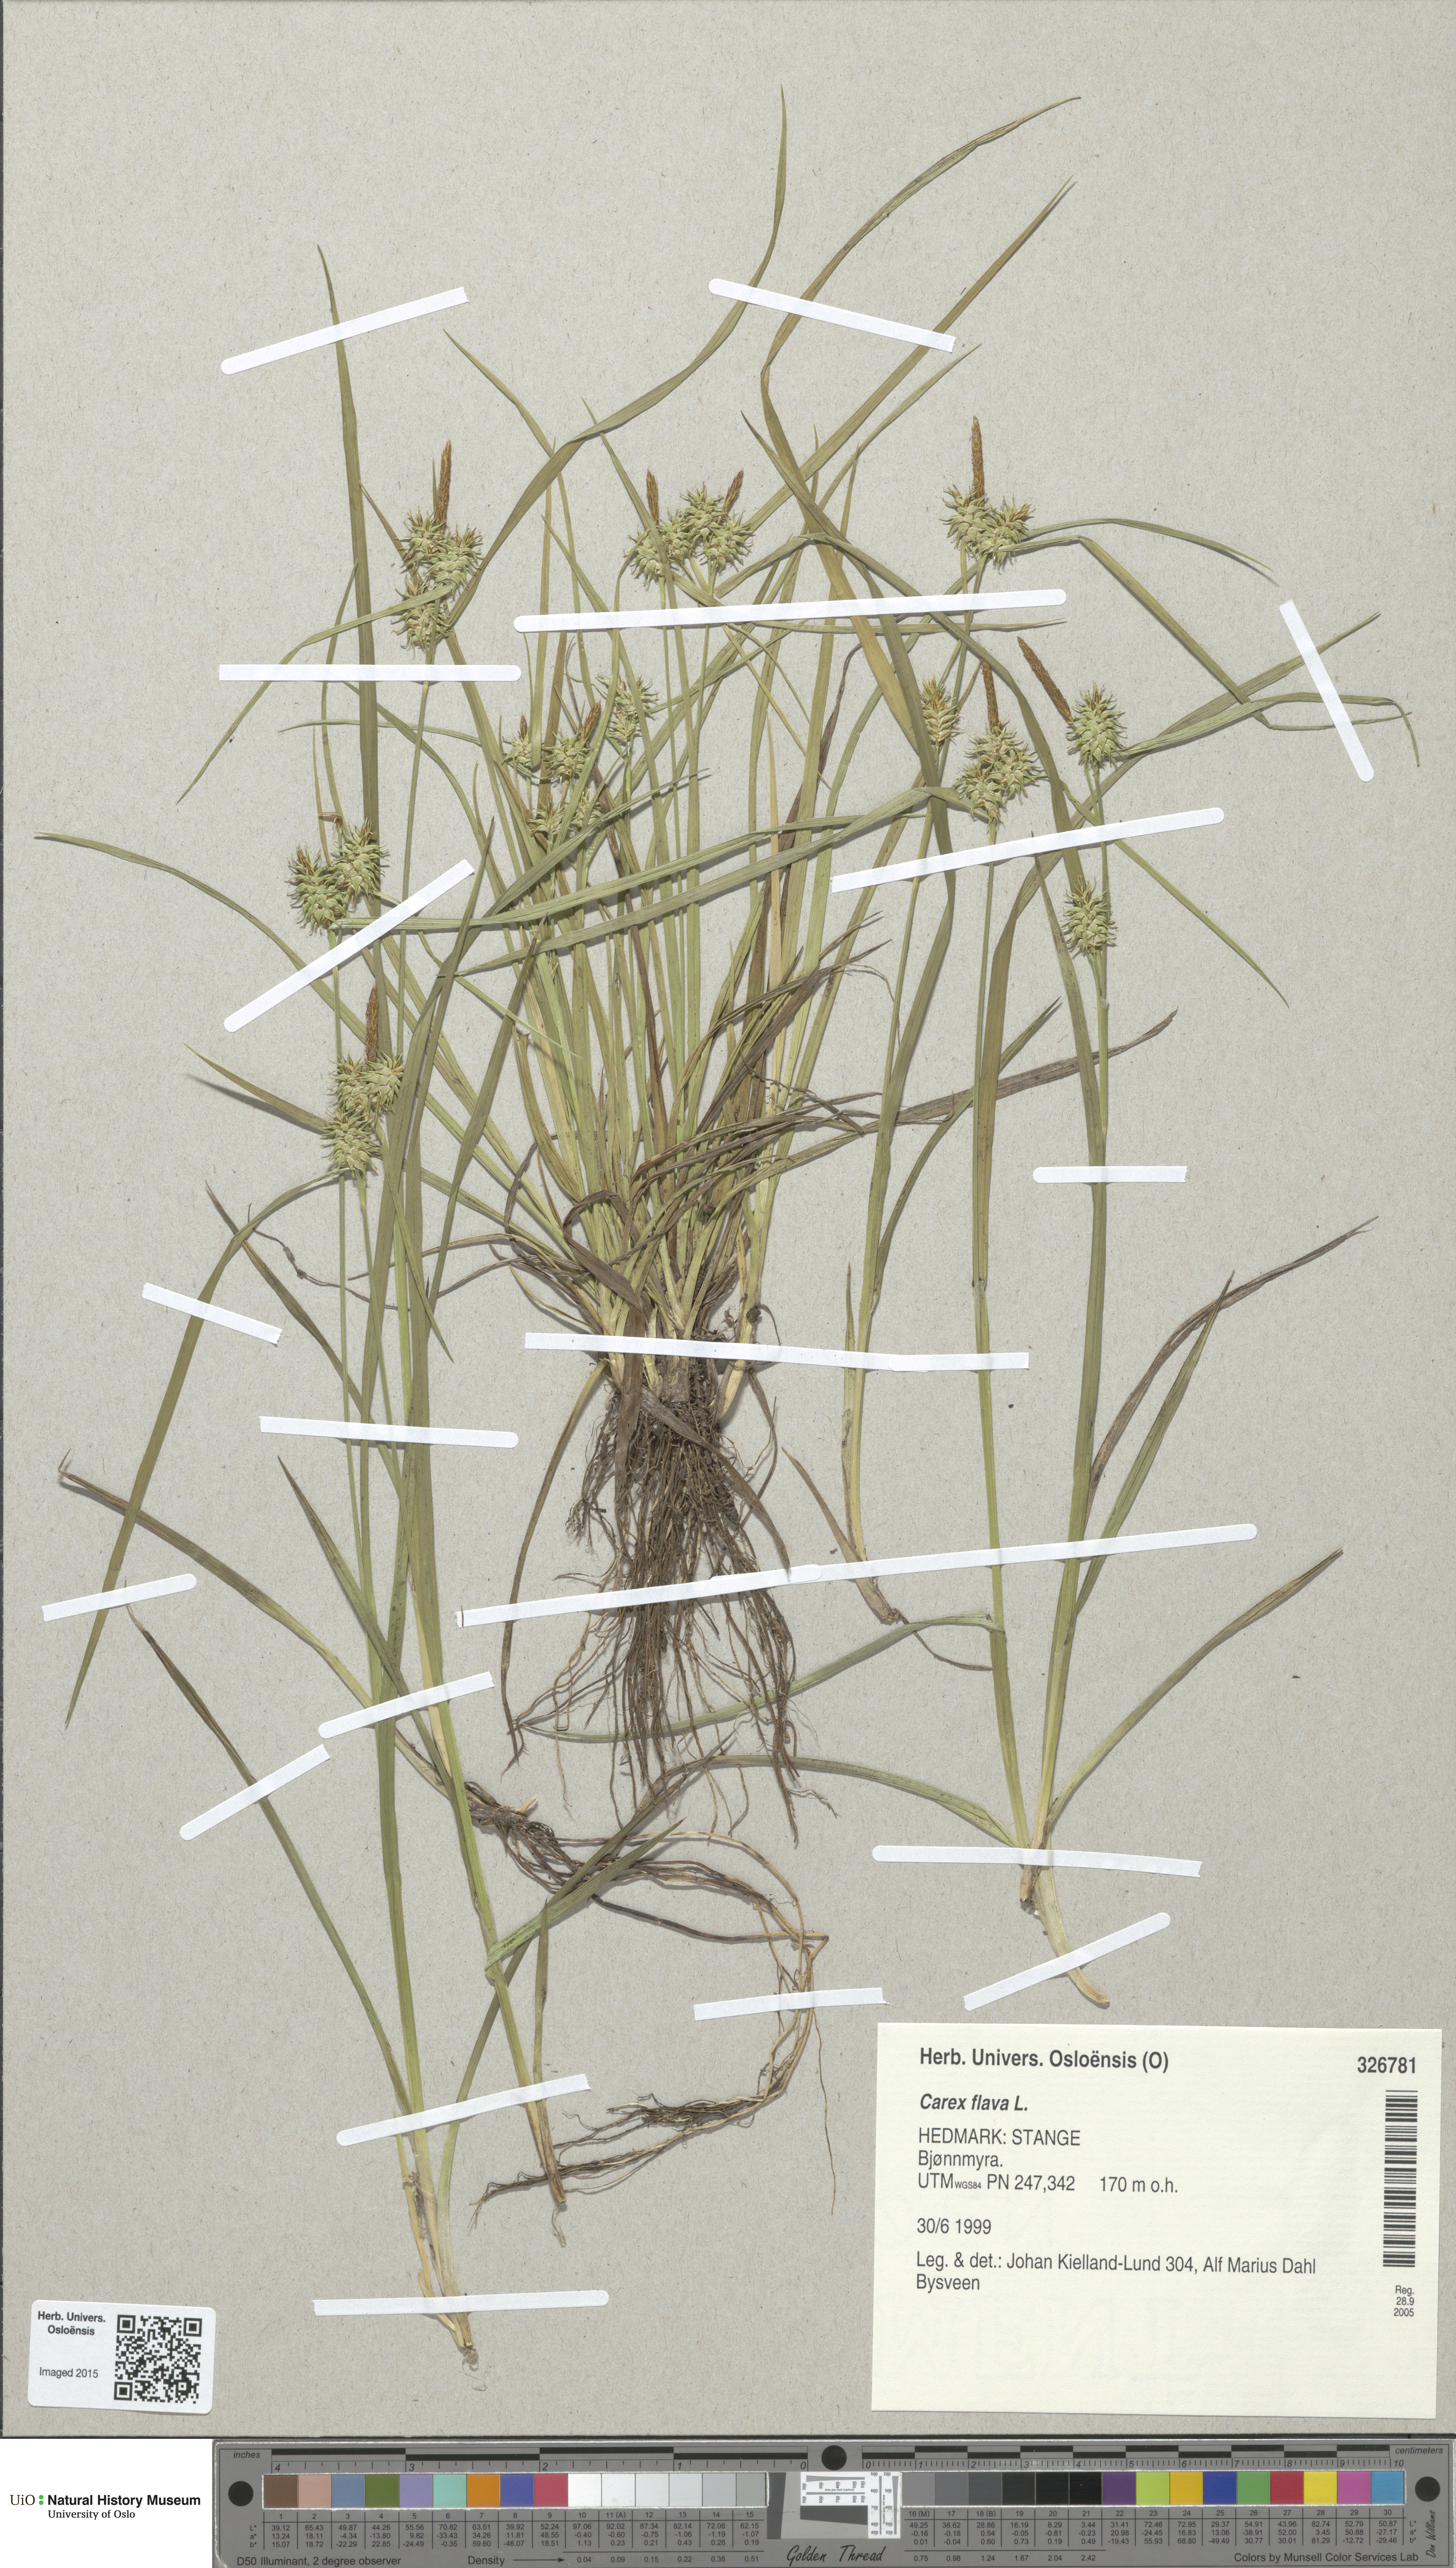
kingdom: Plantae
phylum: Tracheophyta
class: Liliopsida
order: Poales
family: Cyperaceae
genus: Carex
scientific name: Carex flava
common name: Large yellow-sedge
